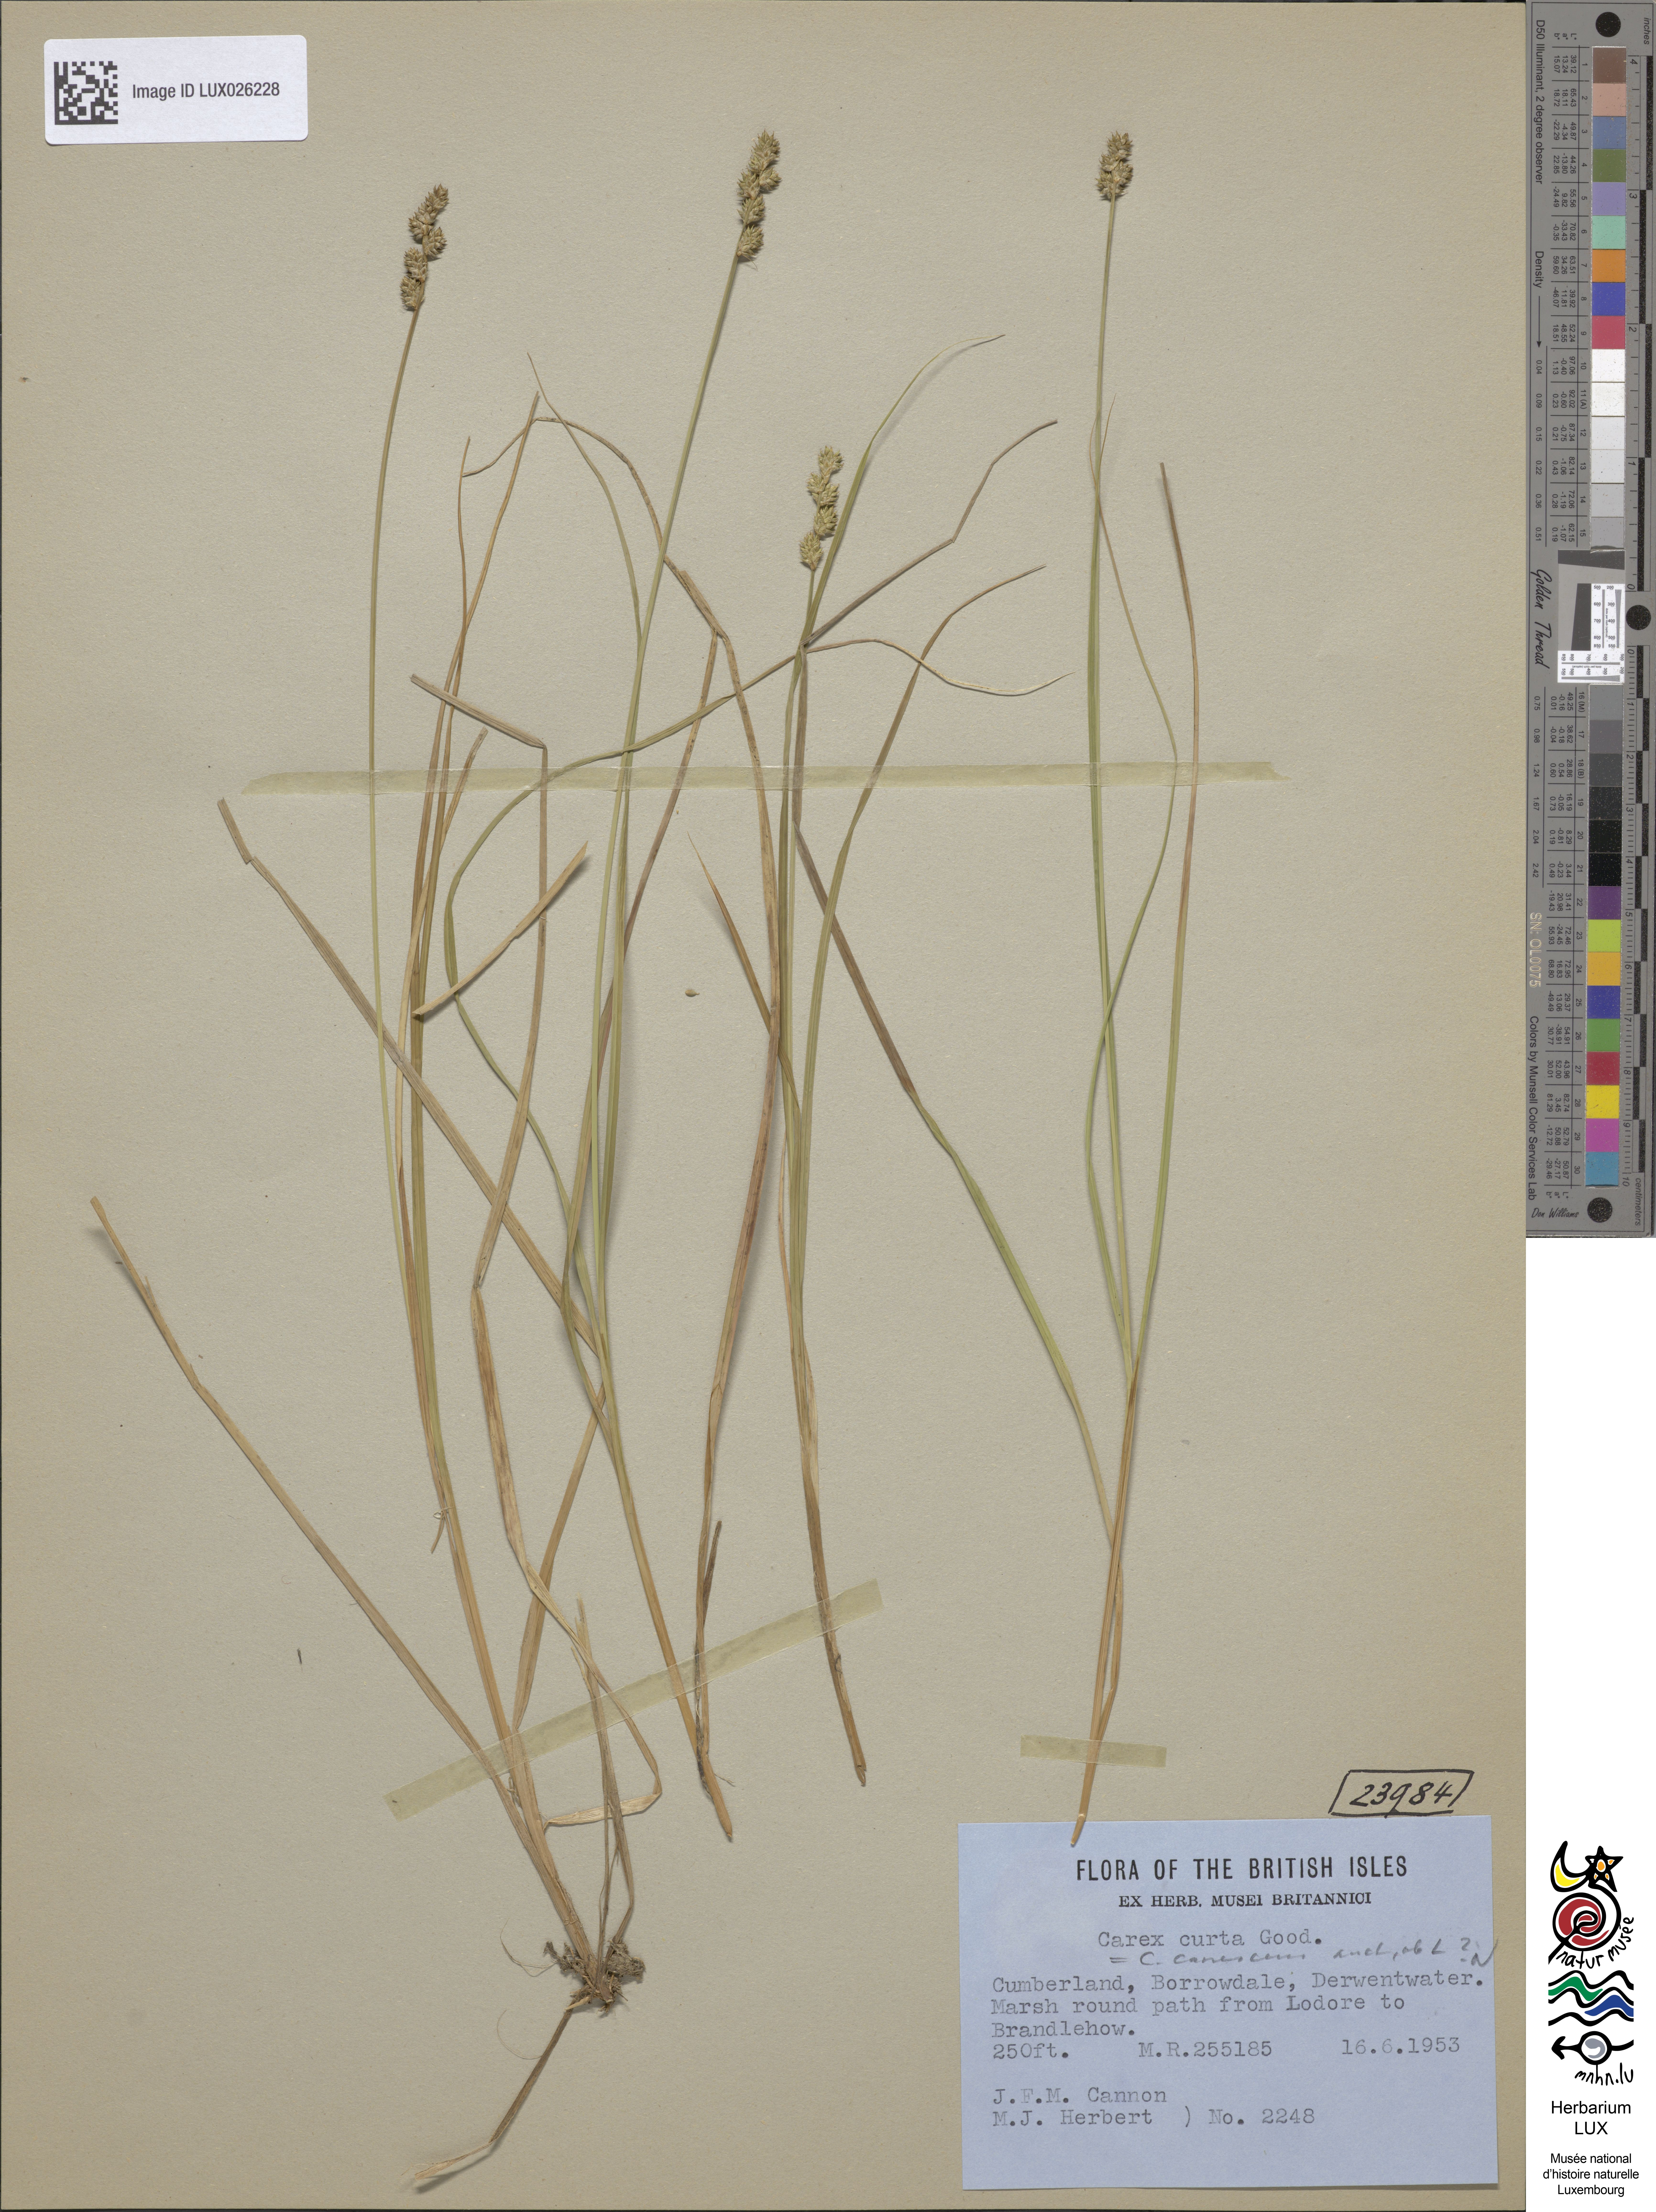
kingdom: Plantae
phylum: Tracheophyta
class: Liliopsida
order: Poales
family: Cyperaceae
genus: Carex
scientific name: Carex curta
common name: White sedge
